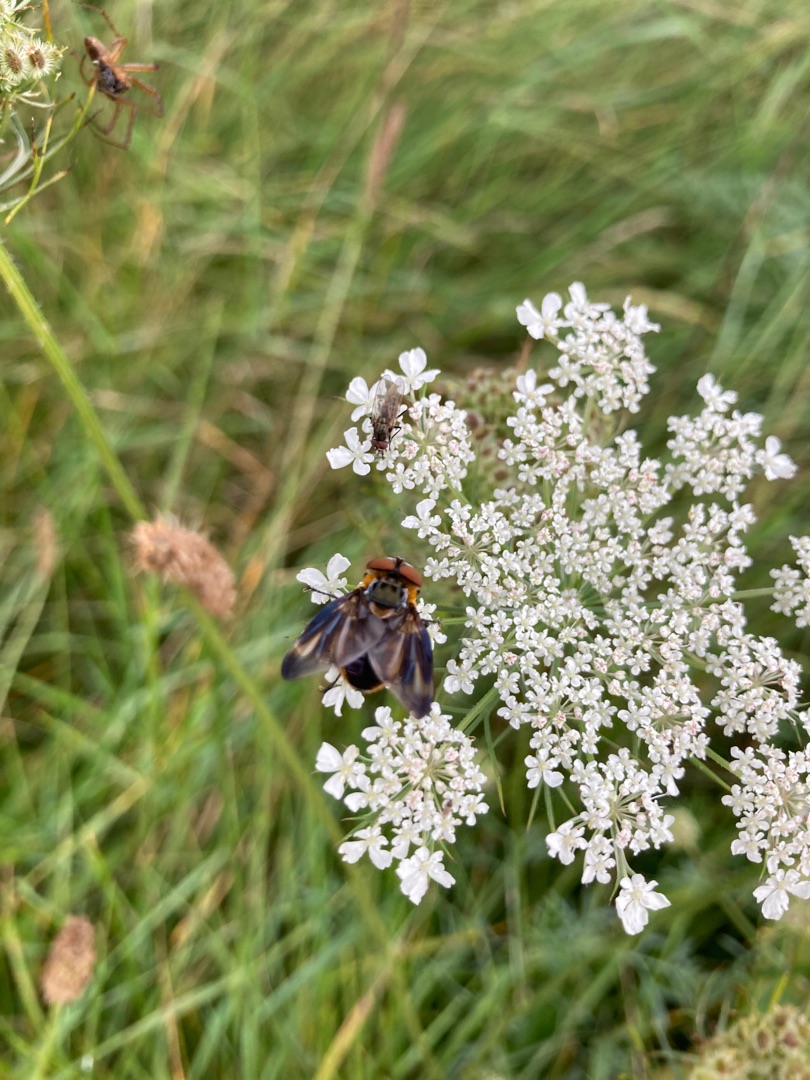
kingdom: Animalia
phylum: Arthropoda
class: Insecta
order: Diptera
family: Tachinidae
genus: Phasia
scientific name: Phasia hemiptera
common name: Blåvinget pragtsnylteflue
